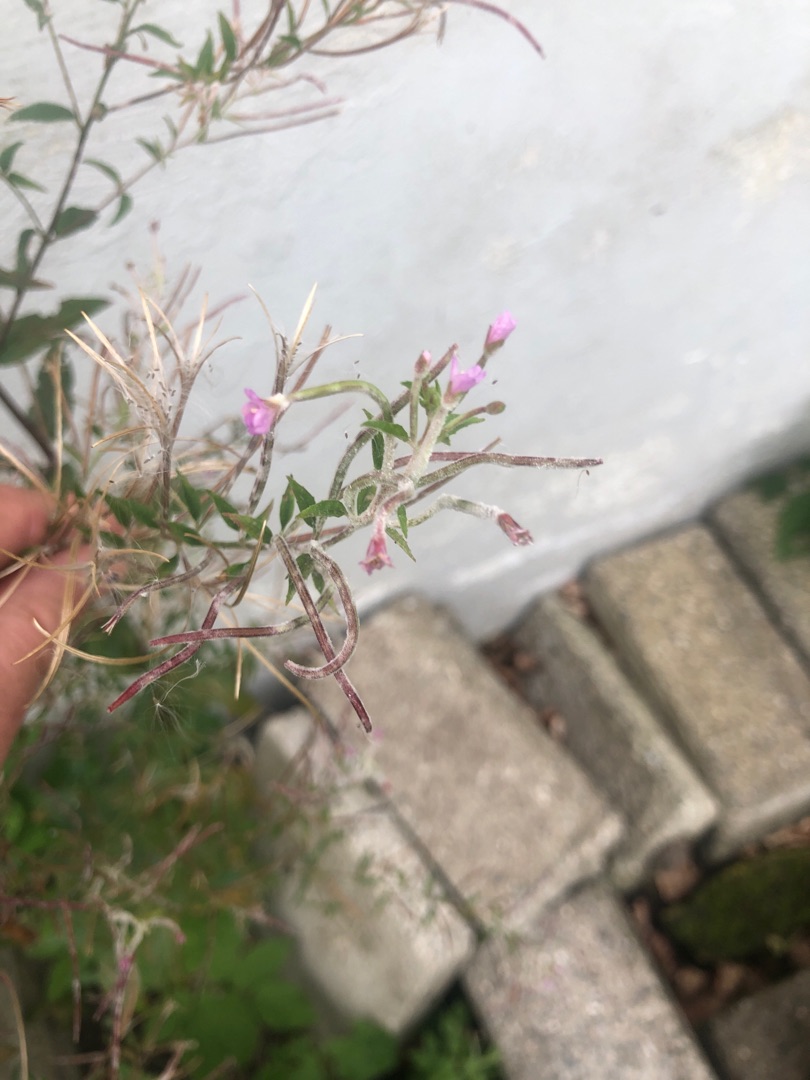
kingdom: Plantae
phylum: Tracheophyta
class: Magnoliopsida
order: Myrtales
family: Onagraceae
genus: Epilobium
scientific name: Epilobium
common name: Dueurtslægten
